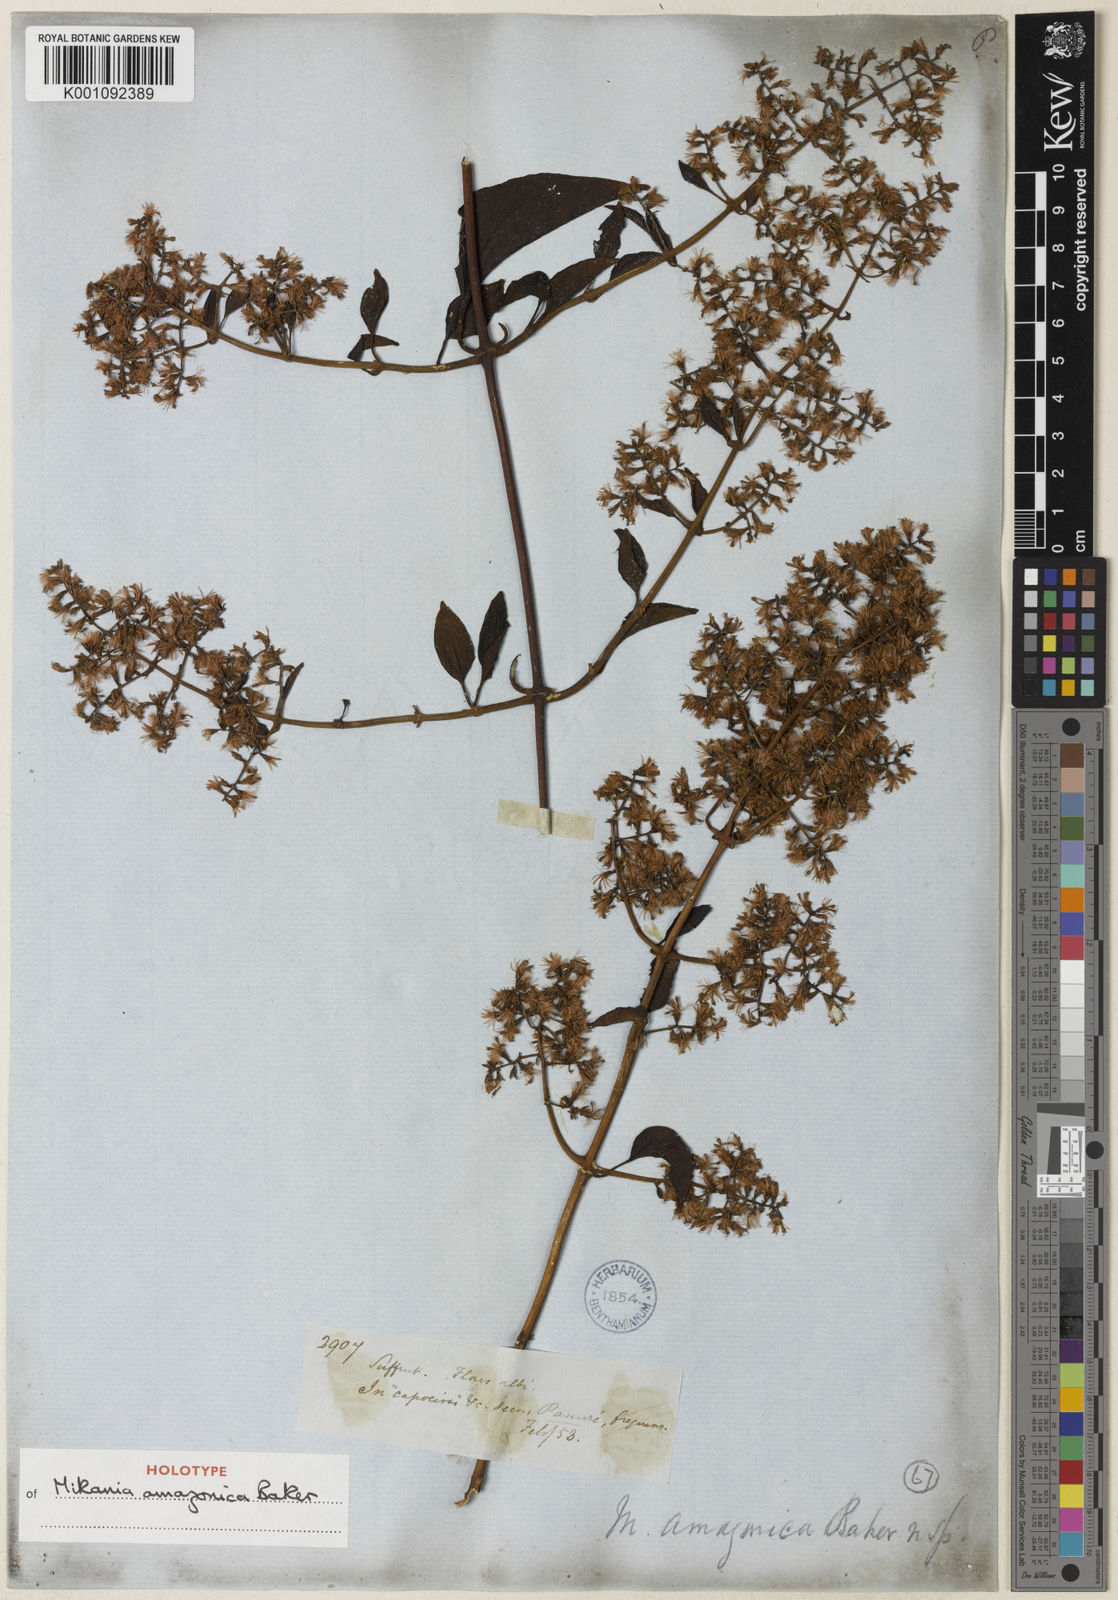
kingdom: Plantae
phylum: Tracheophyta
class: Magnoliopsida
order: Asterales
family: Asteraceae
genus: Mikania
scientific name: Mikania sprucei
